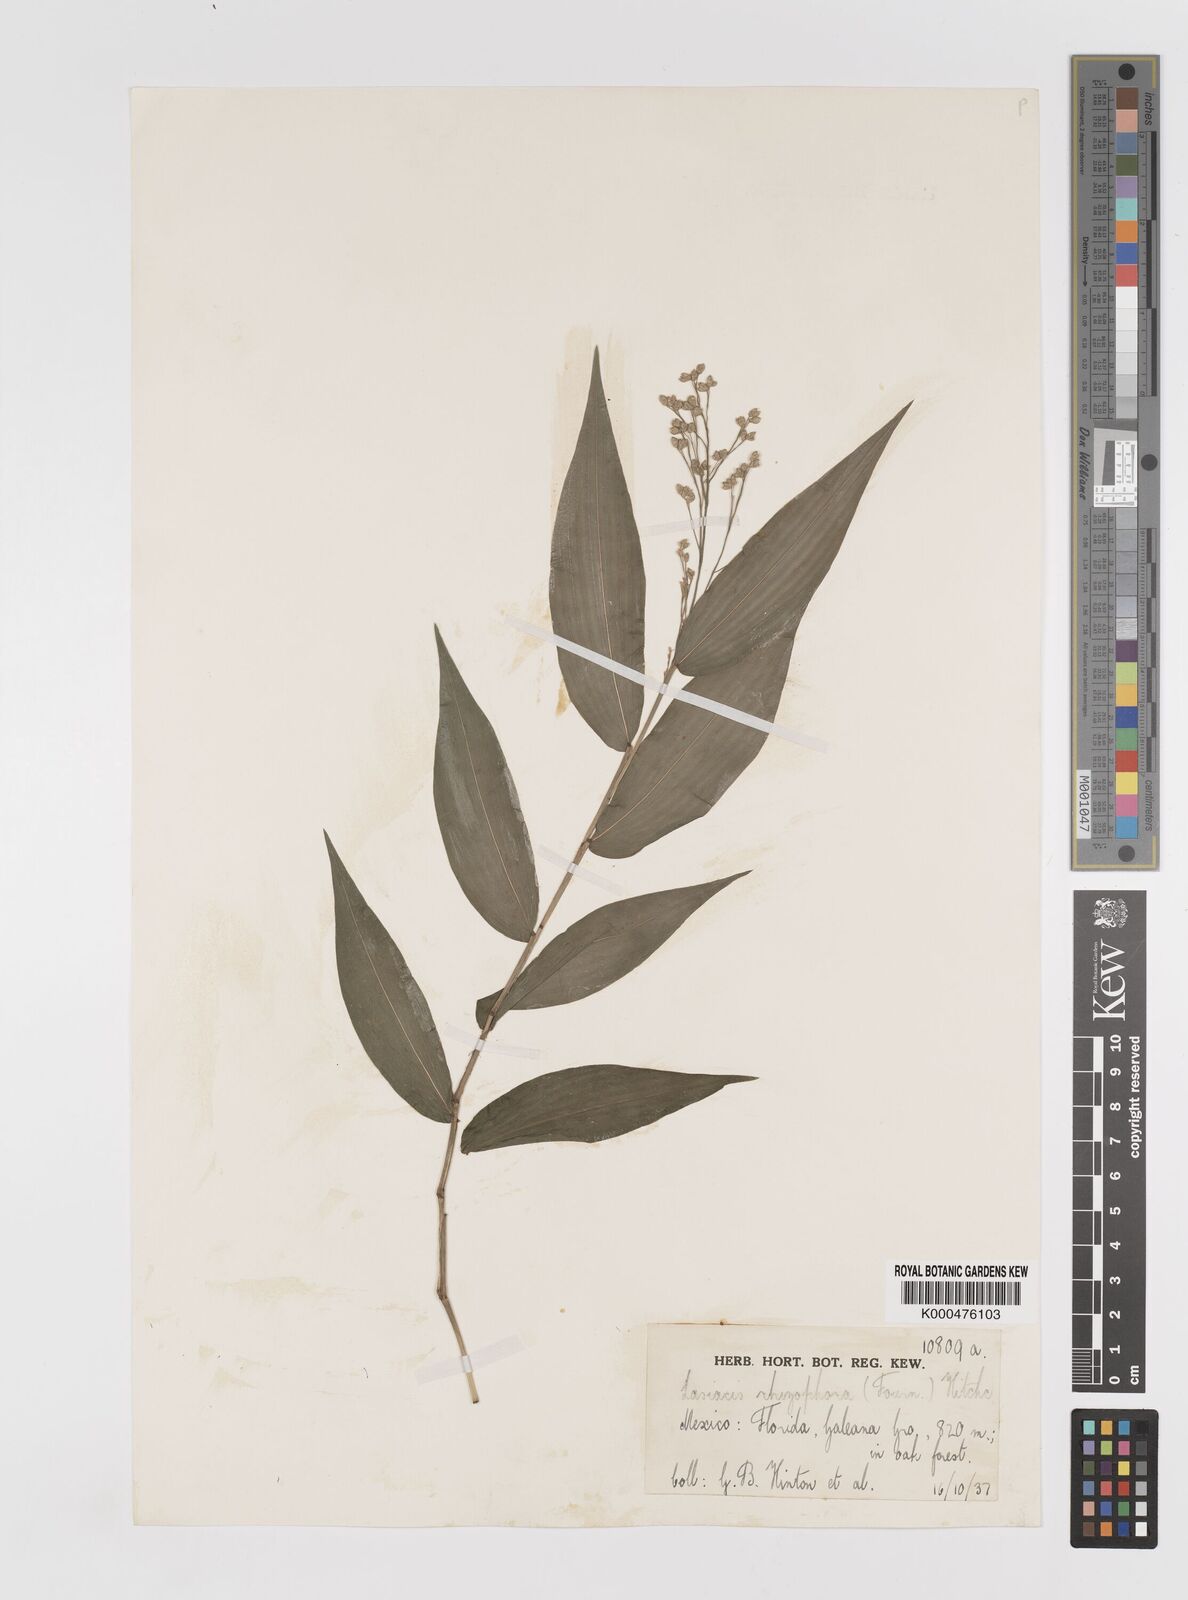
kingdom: Plantae
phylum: Tracheophyta
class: Liliopsida
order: Poales
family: Poaceae
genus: Lasiacis
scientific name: Lasiacis
